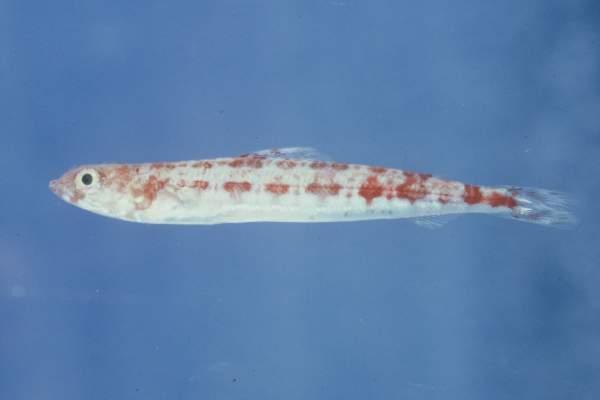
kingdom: Animalia
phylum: Chordata
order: Aulopiformes
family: Synodontidae
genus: Synodus
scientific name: Synodus variegatus
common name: Variegated lizardfish
